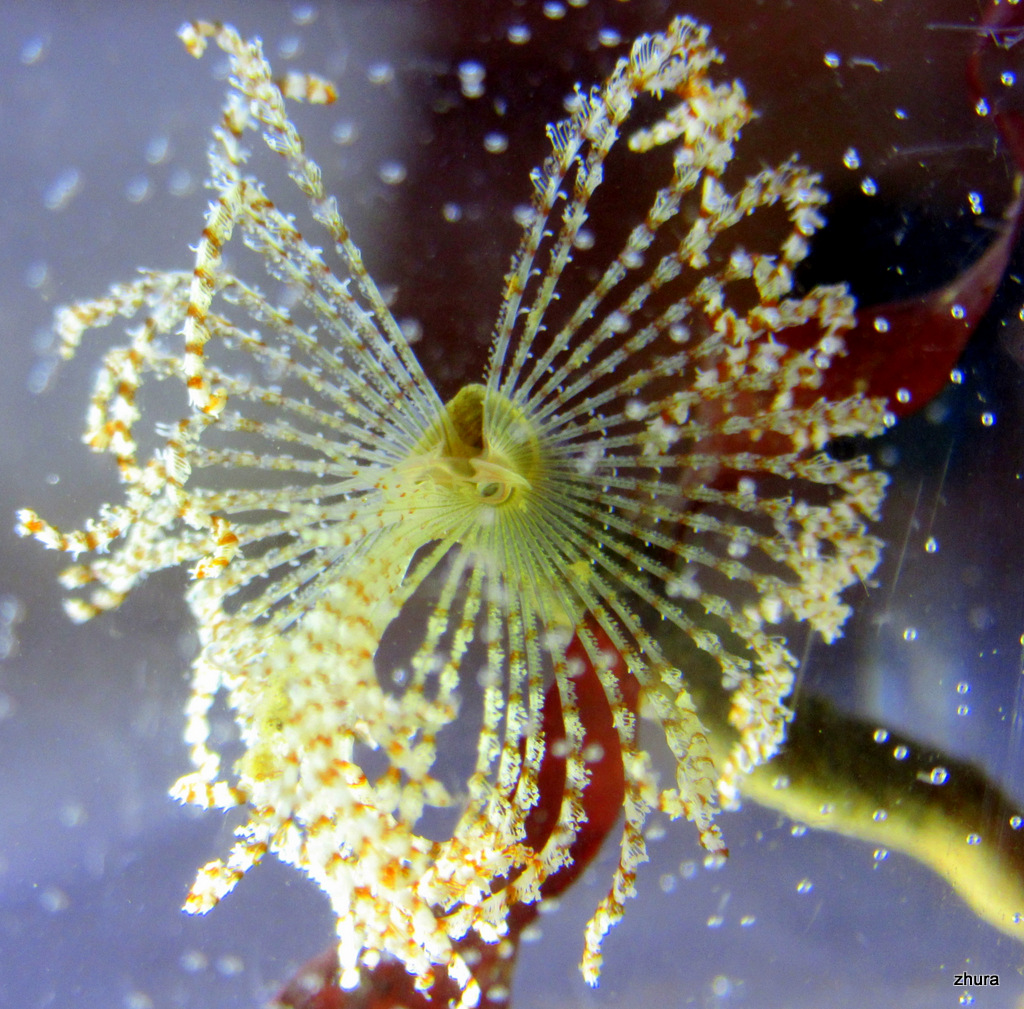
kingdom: Animalia
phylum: Annelida
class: Polychaeta
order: Sabellida
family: Sabellidae
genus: Branchiomma
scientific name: Branchiomma arcticum
